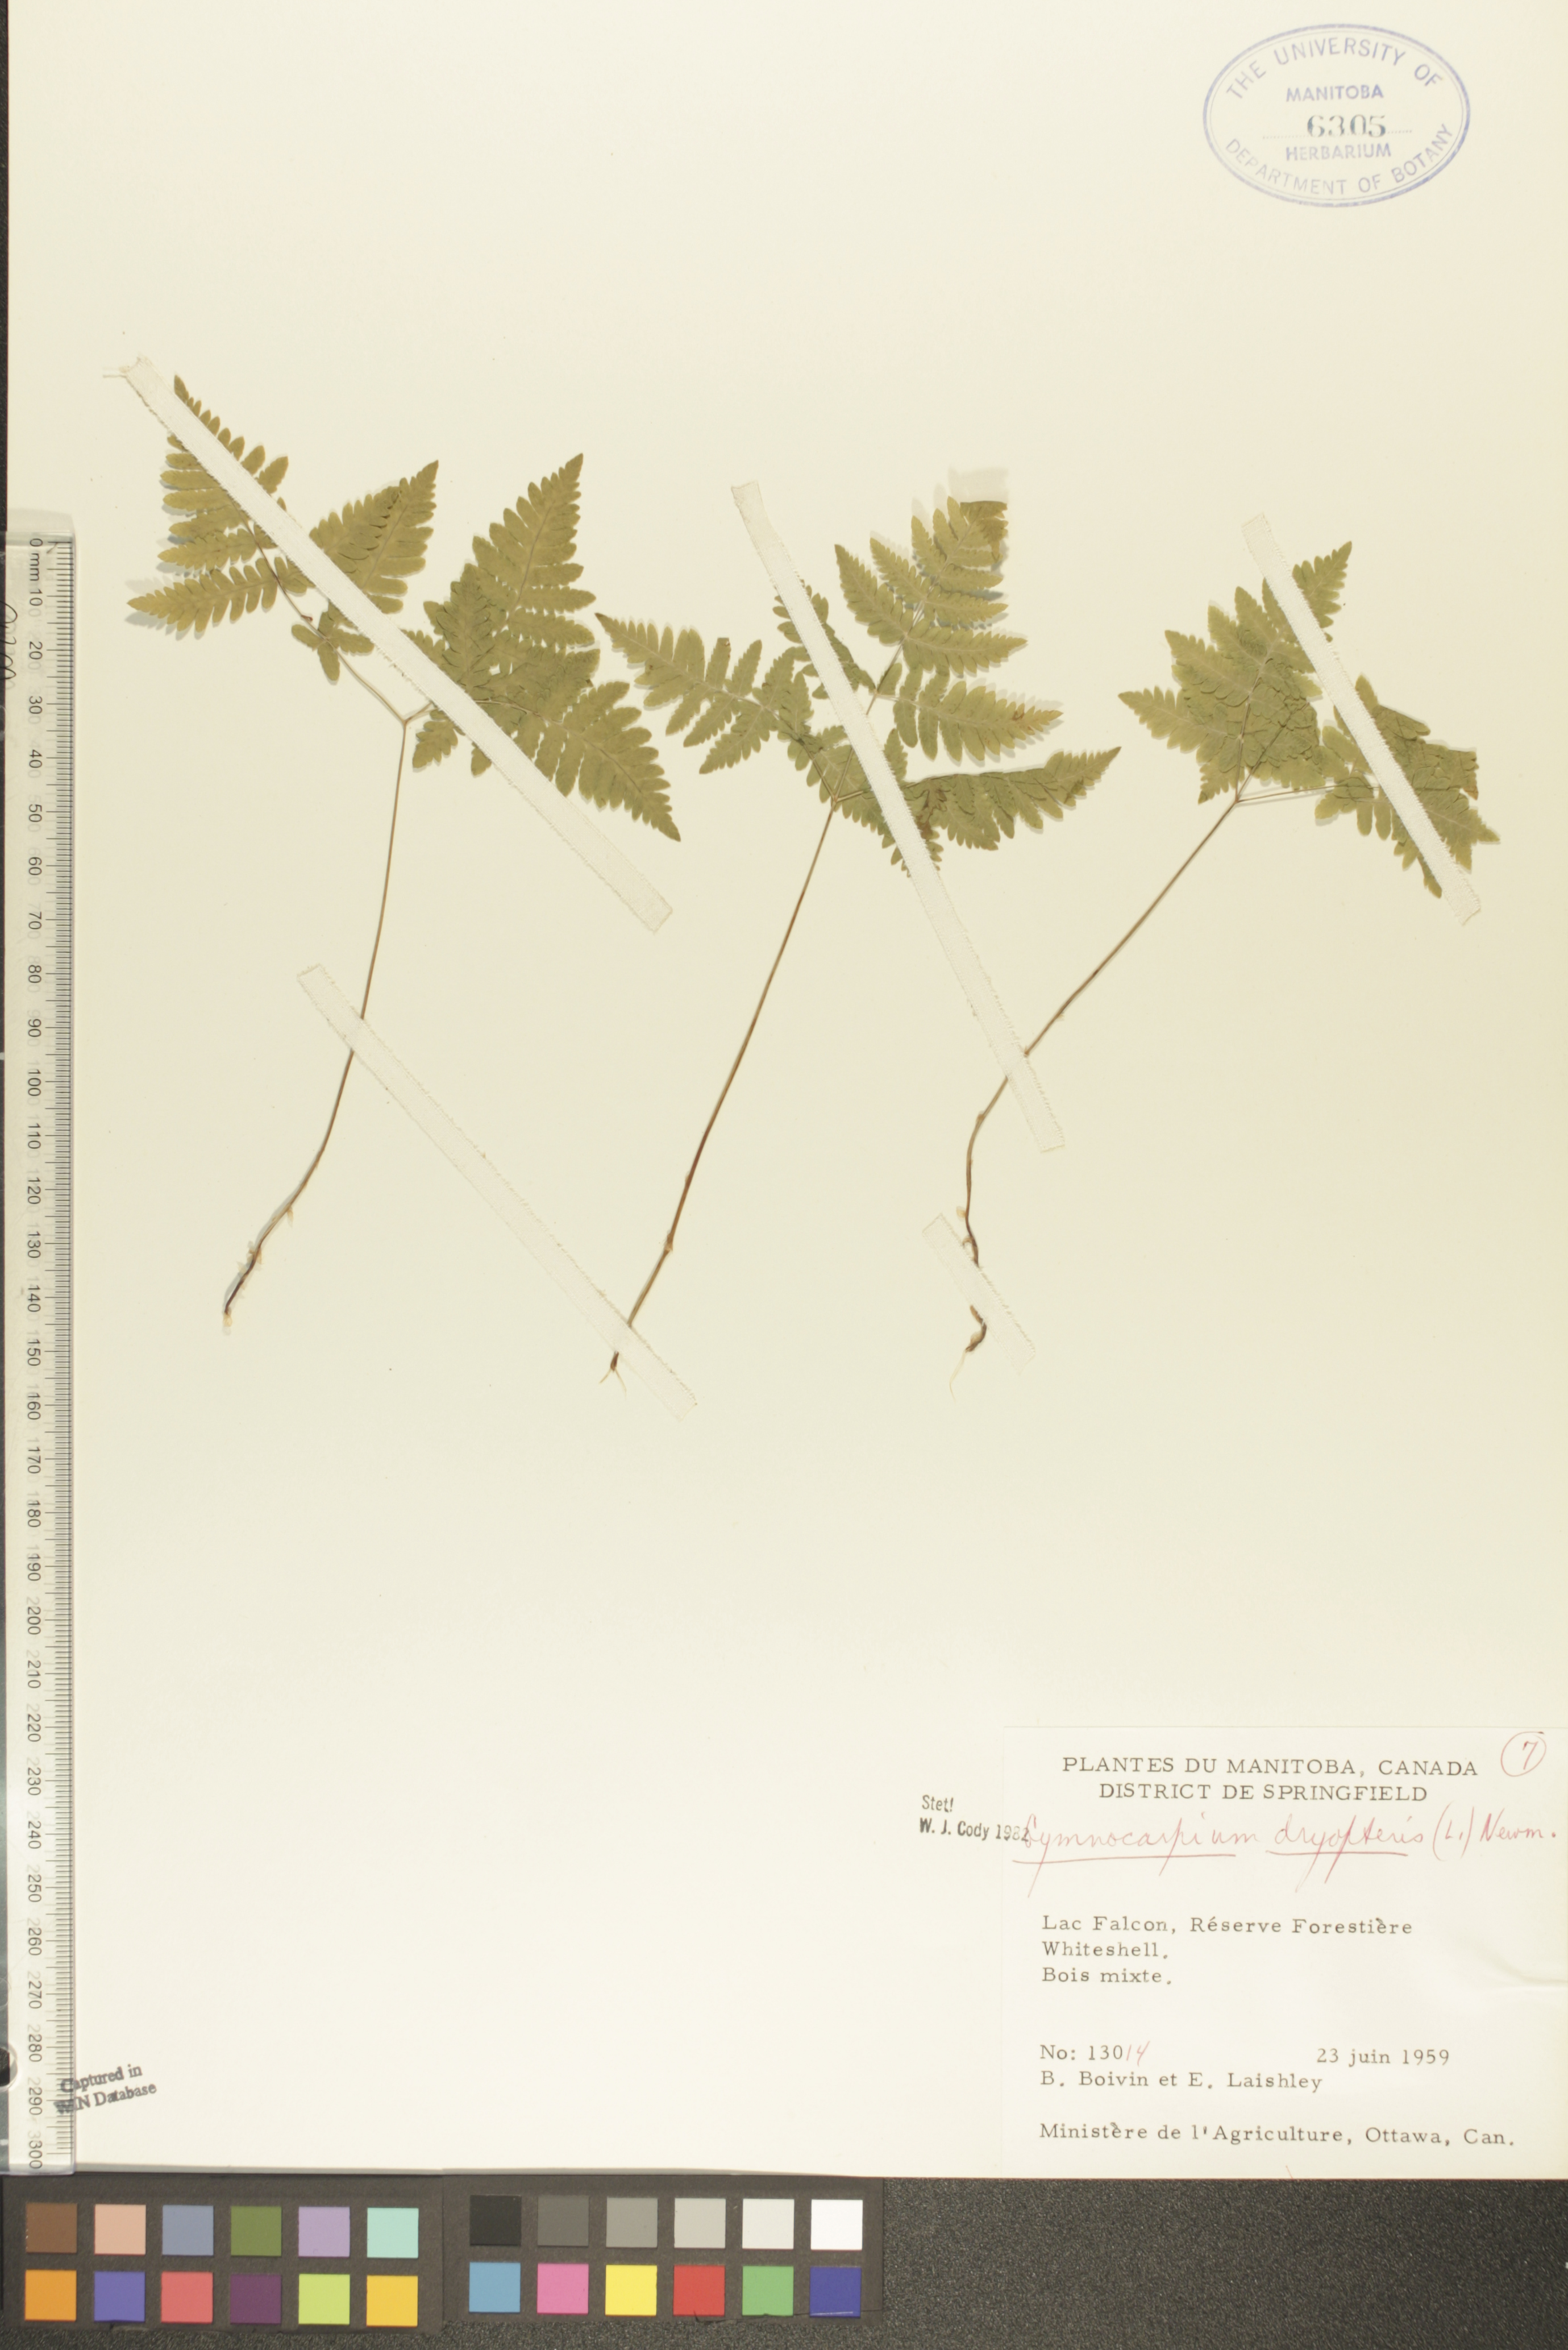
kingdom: Plantae
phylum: Tracheophyta
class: Polypodiopsida
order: Polypodiales
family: Cystopteridaceae
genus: Gymnocarpium
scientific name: Gymnocarpium dryopteris
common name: Oak fern
